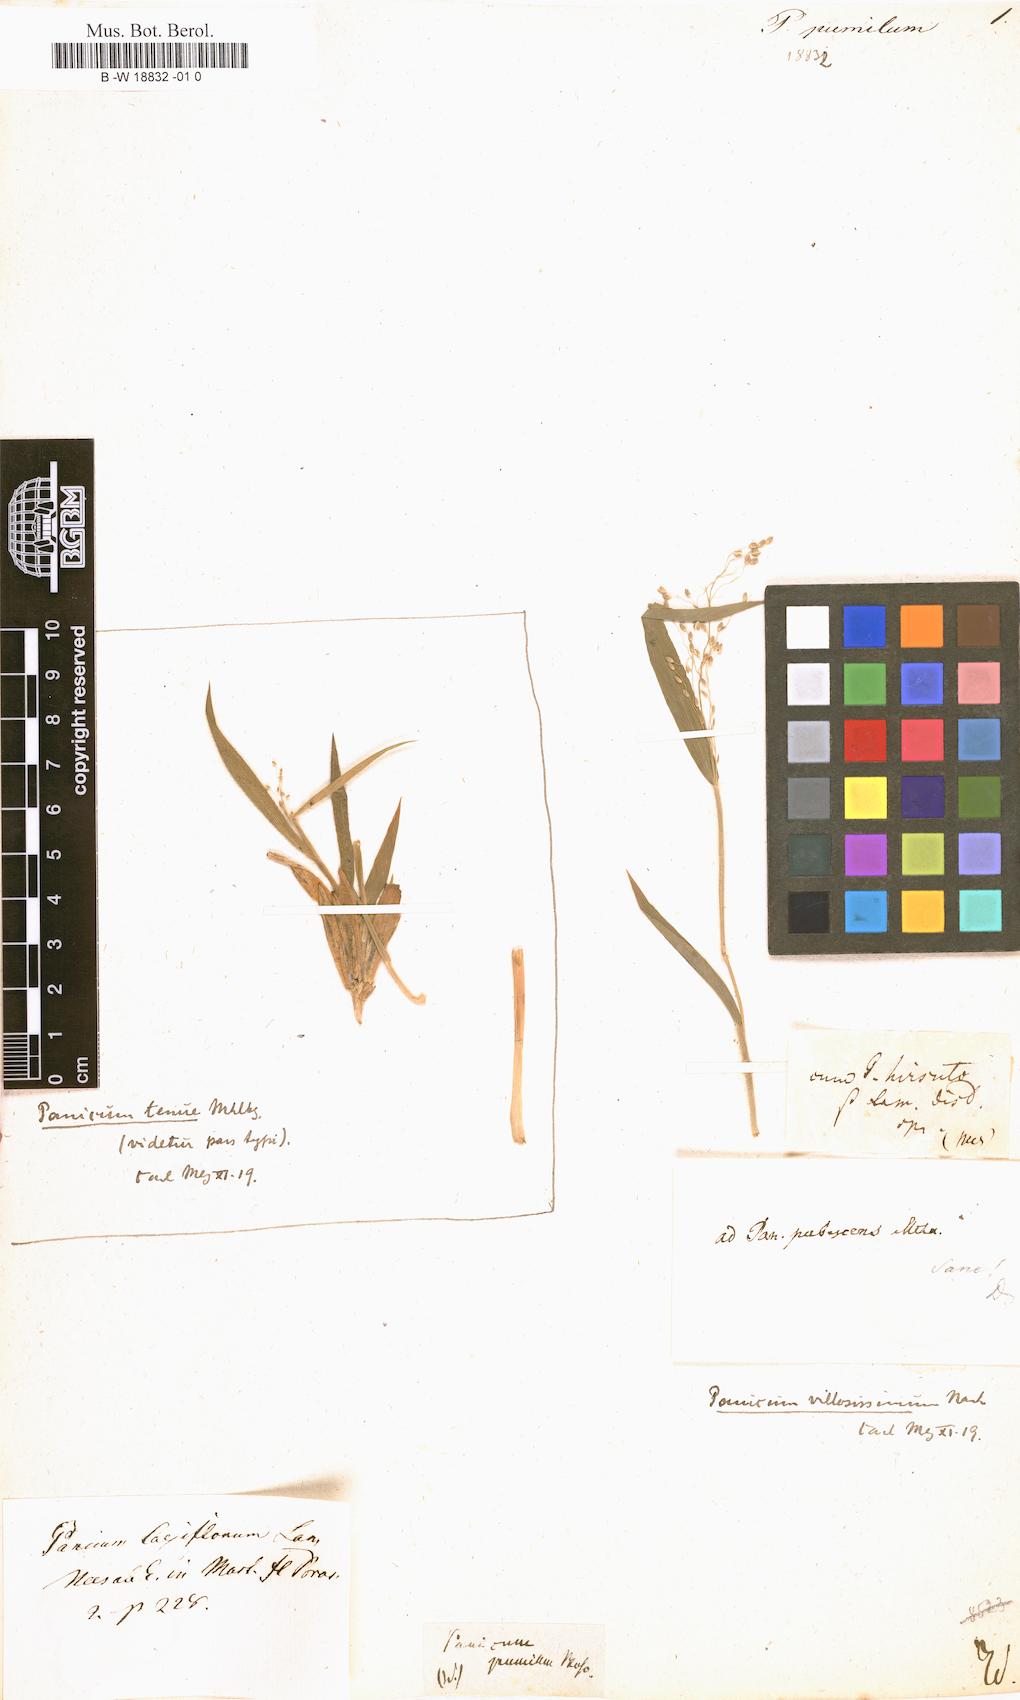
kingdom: Plantae
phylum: Tracheophyta
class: Liliopsida
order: Poales
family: Poaceae
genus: Setaria
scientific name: Setaria pumila
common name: Yellow bristle-grass
